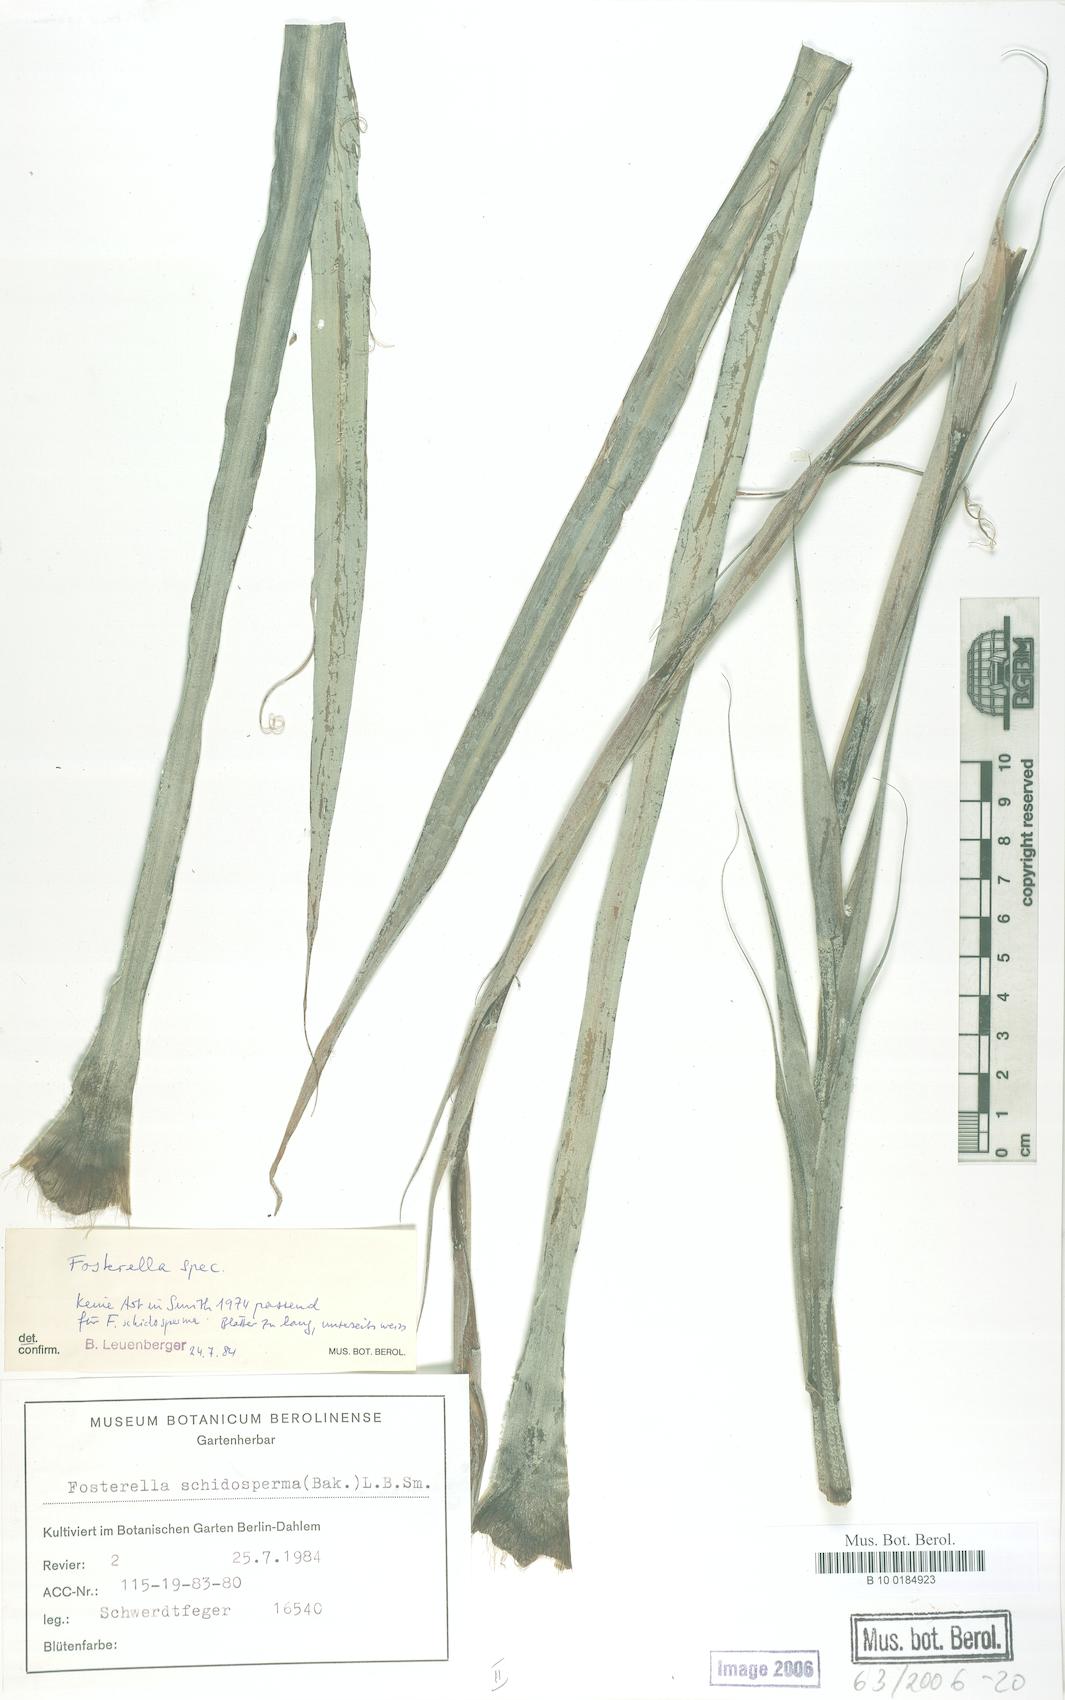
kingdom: Plantae
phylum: Tracheophyta
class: Liliopsida
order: Poales
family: Bromeliaceae
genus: Fosterella
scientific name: Fosterella graminea
